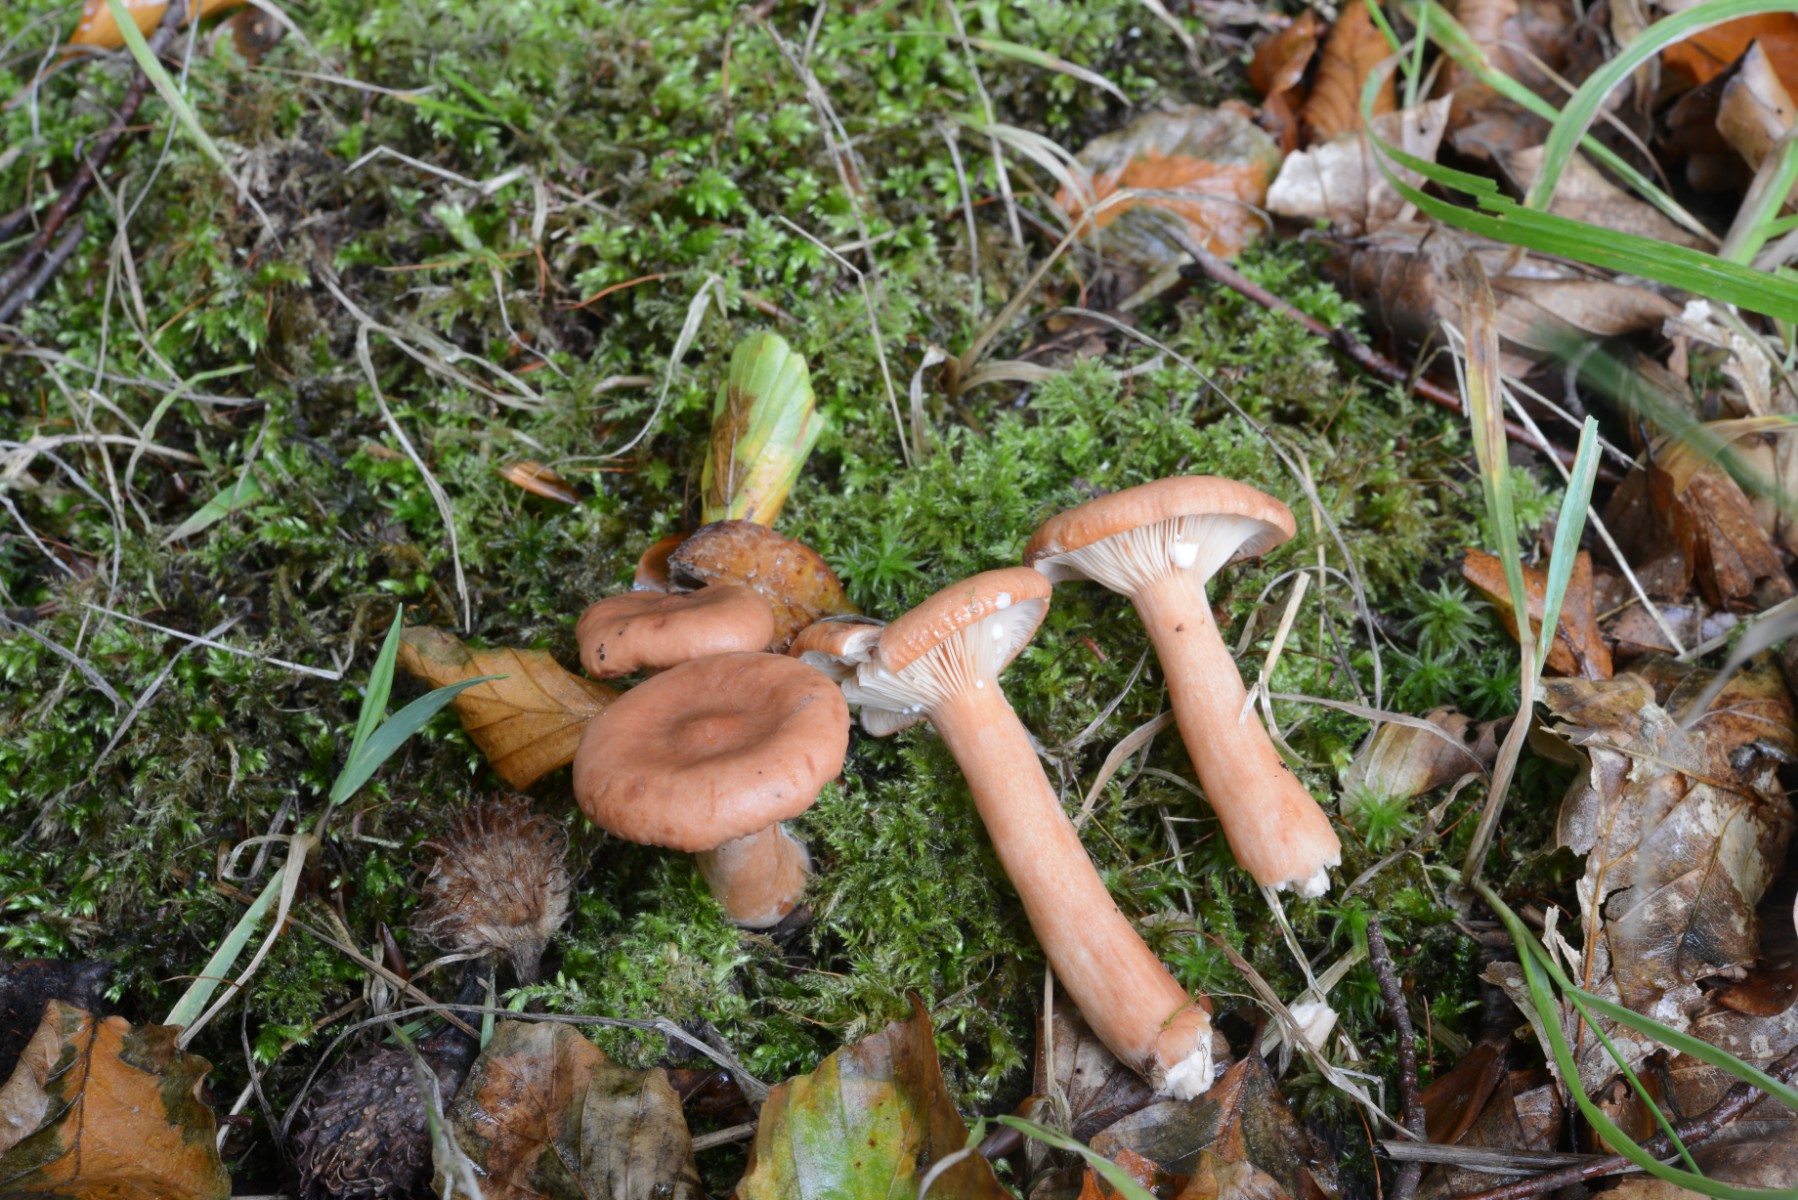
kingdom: Fungi
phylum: Basidiomycota
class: Agaricomycetes
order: Russulales
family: Russulaceae
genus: Lactarius
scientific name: Lactarius subdulcis
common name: sødlig mælkehat
